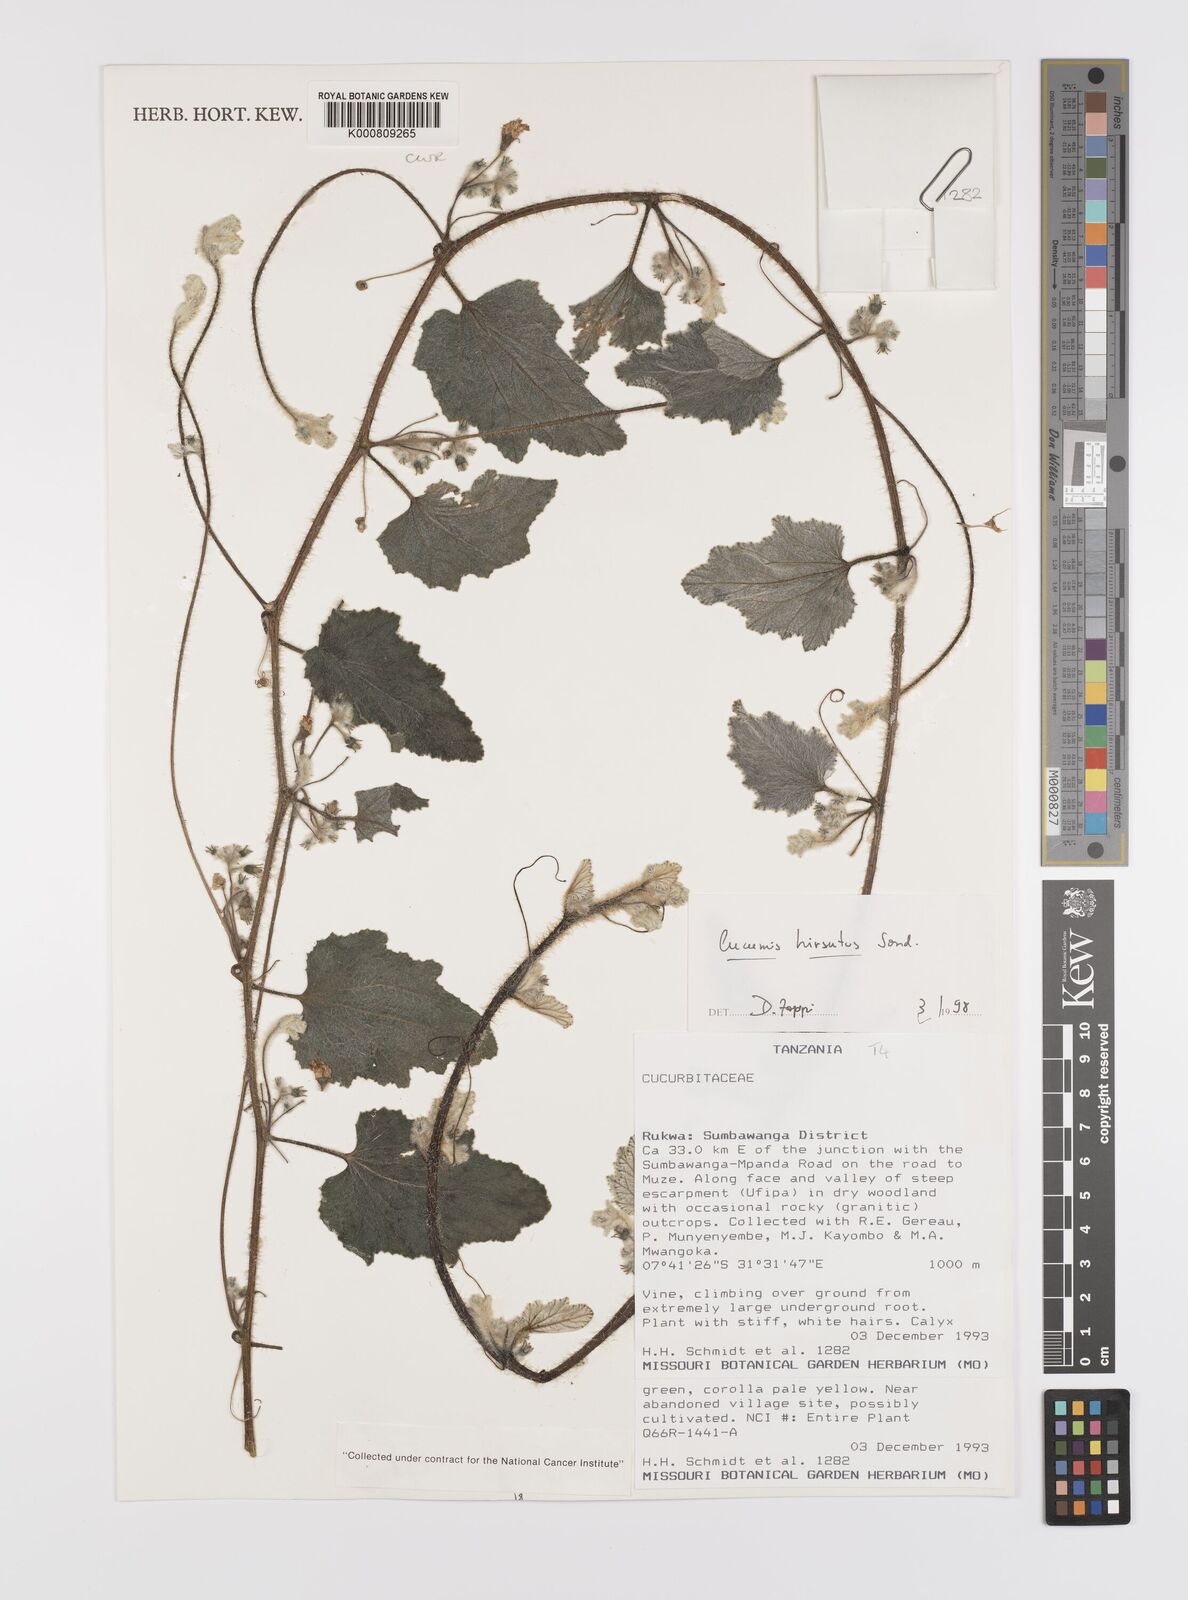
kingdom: Plantae
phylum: Tracheophyta
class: Magnoliopsida
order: Cucurbitales
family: Cucurbitaceae
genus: Cucumis
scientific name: Cucumis hirsutus
